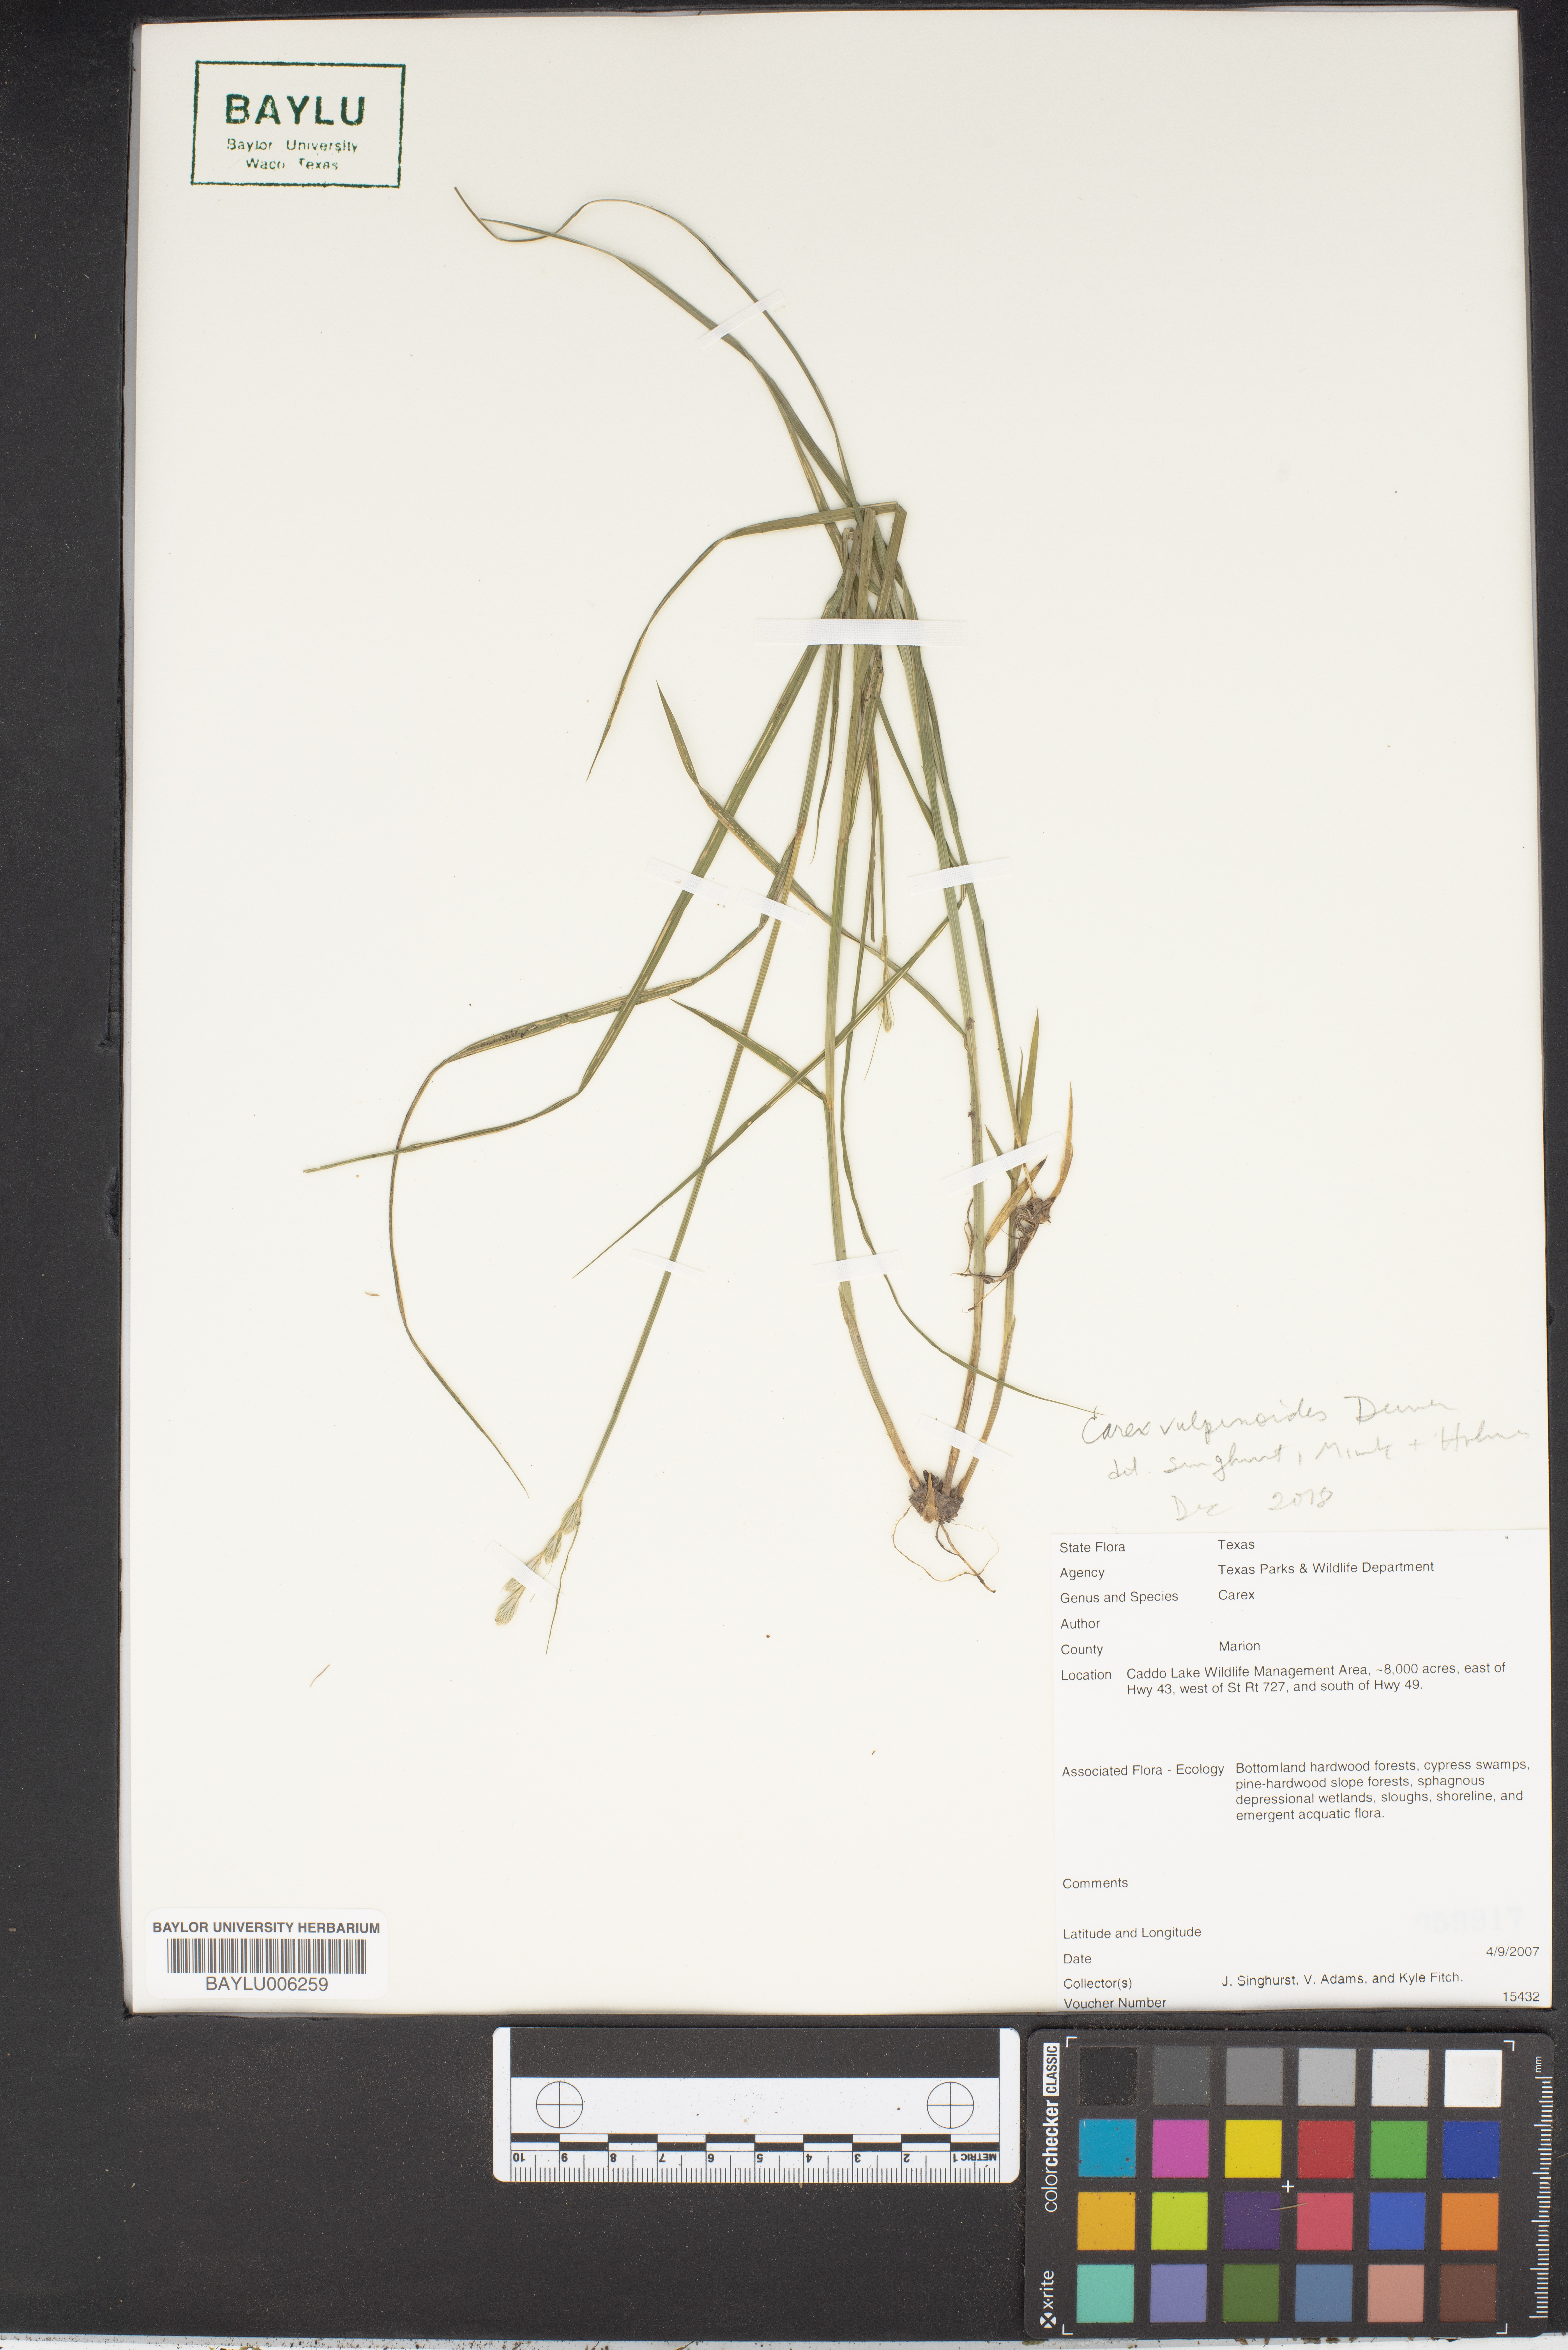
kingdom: Plantae
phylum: Tracheophyta
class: Liliopsida
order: Poales
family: Cyperaceae
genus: Carex
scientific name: Carex
